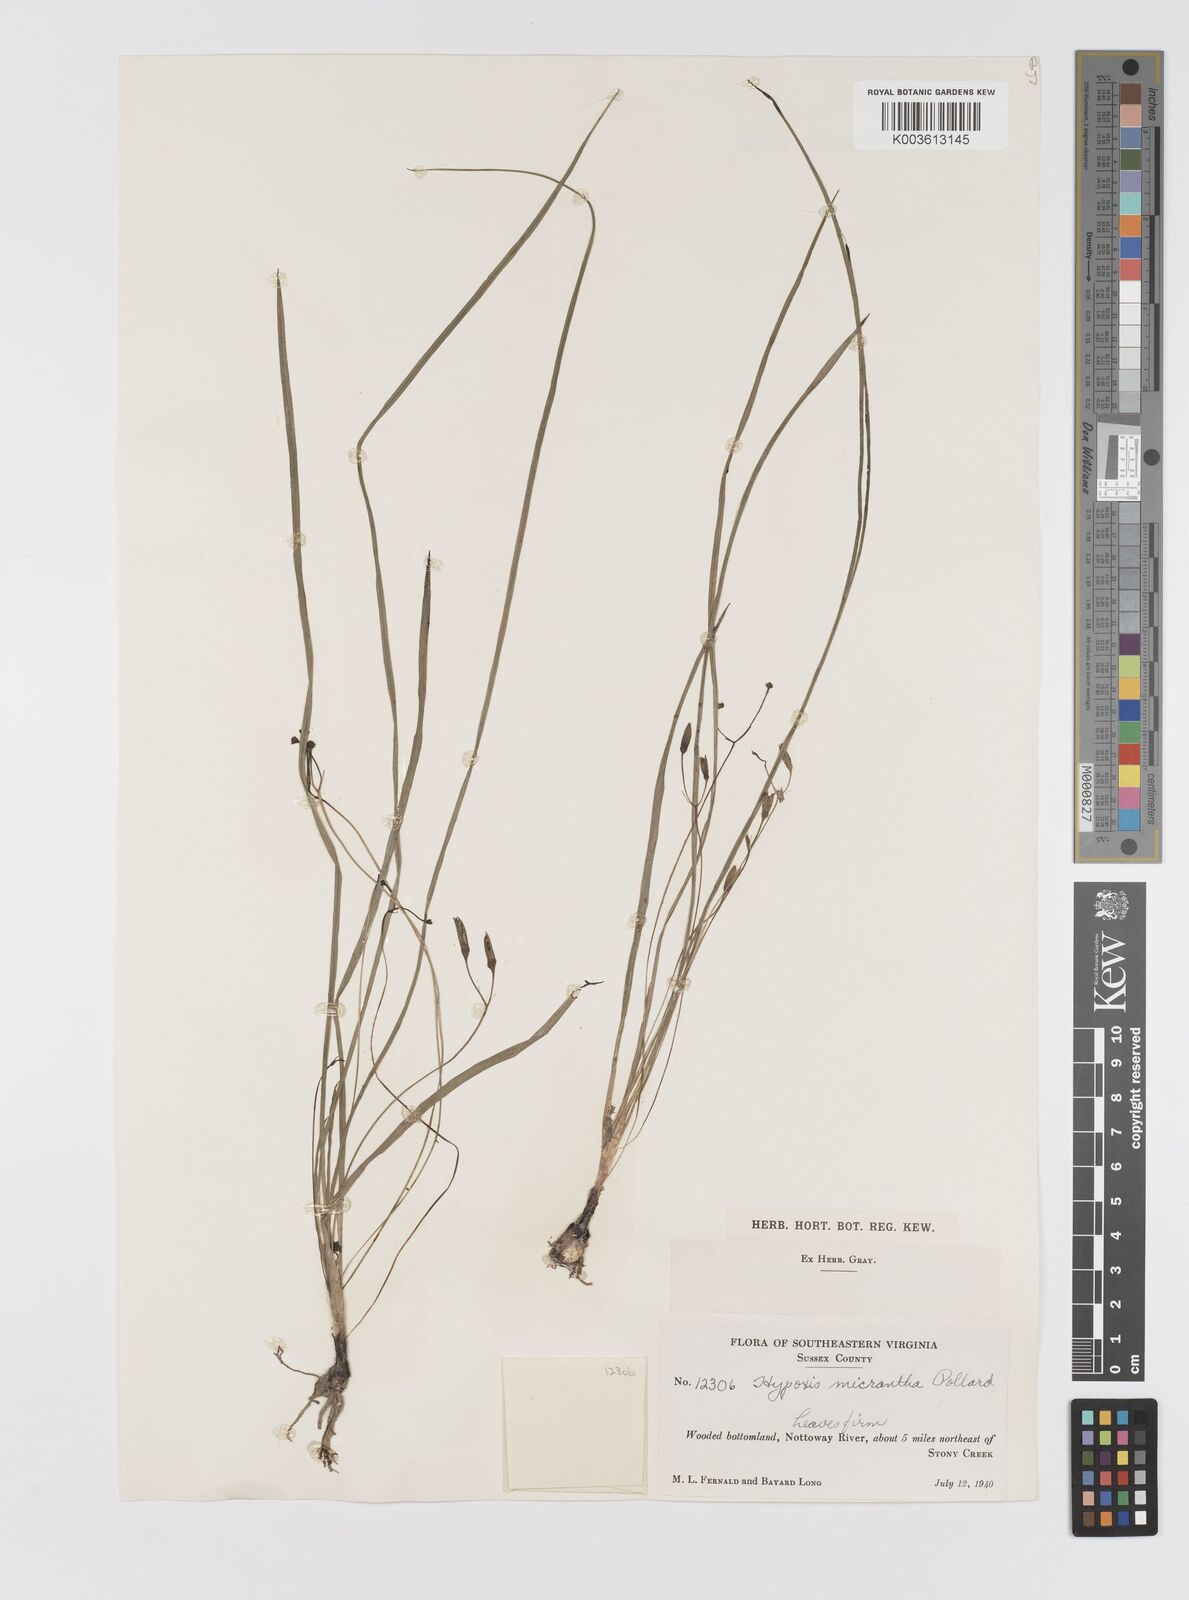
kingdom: Plantae
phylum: Tracheophyta
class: Liliopsida
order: Asparagales
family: Hypoxidaceae
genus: Hypoxis
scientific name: Hypoxis hirsuta
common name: Common goldstar
